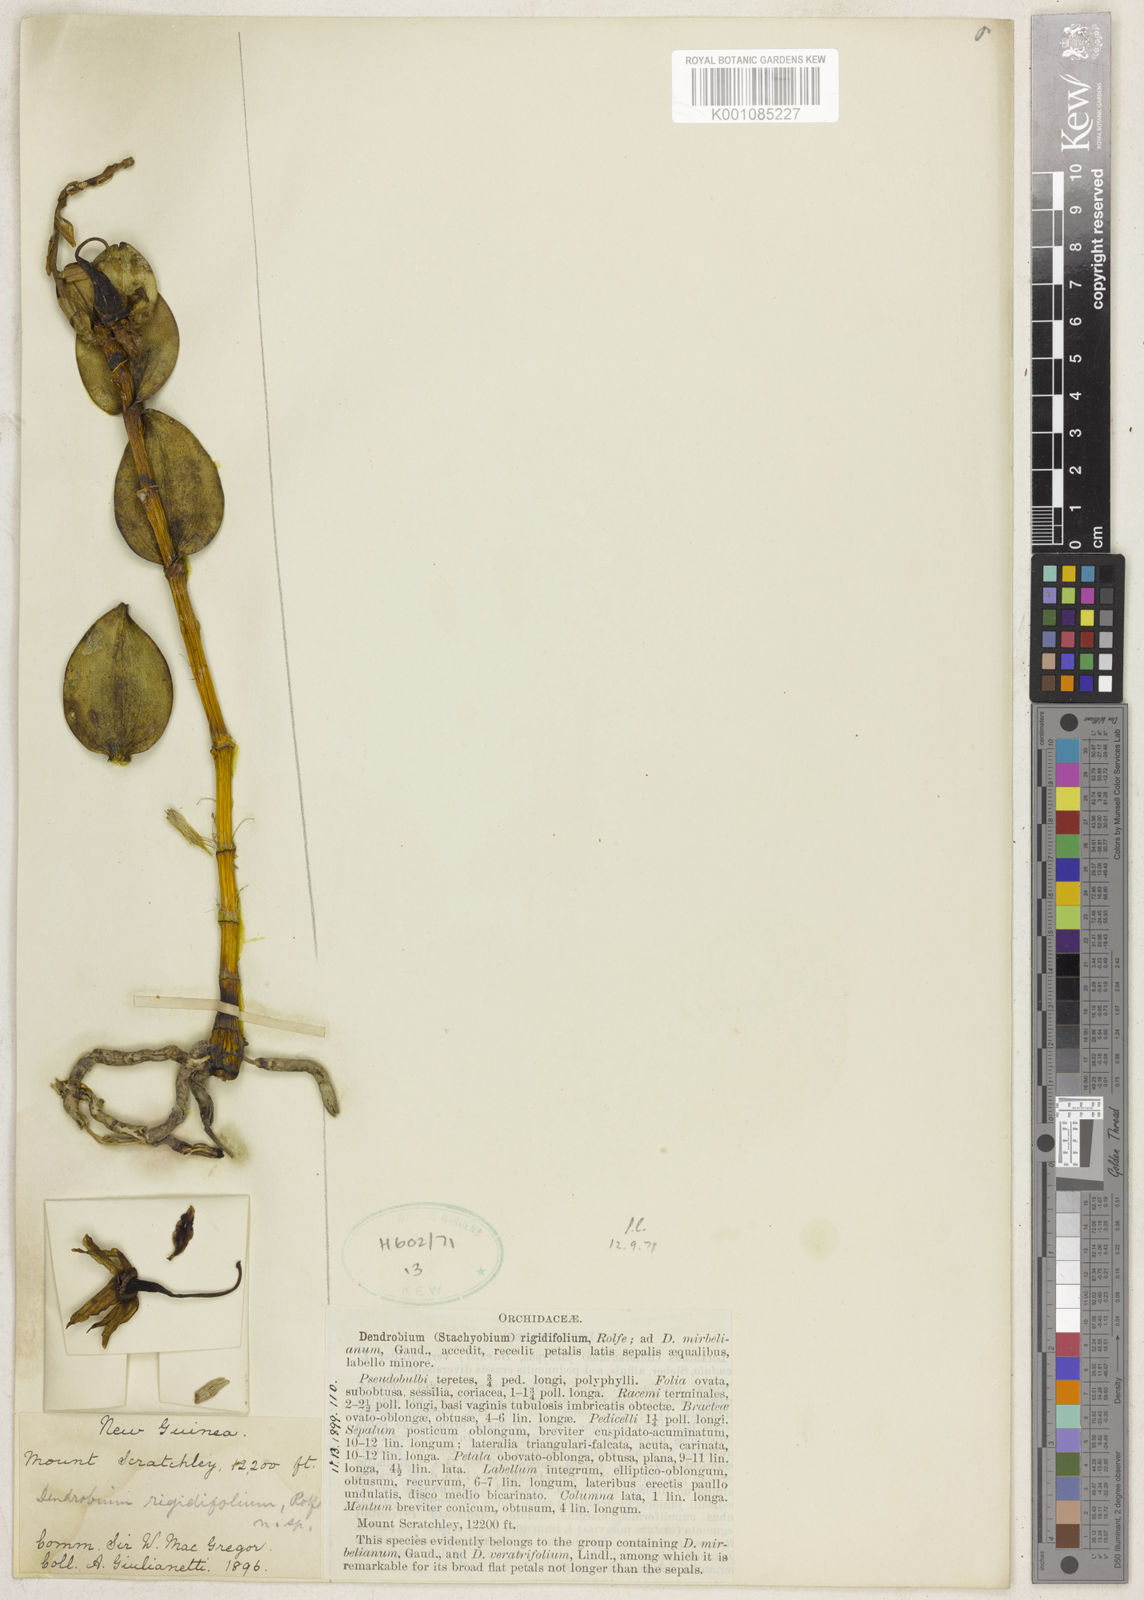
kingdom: Plantae
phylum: Tracheophyta
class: Liliopsida
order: Asparagales
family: Orchidaceae
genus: Dendrobium
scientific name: Dendrobium
